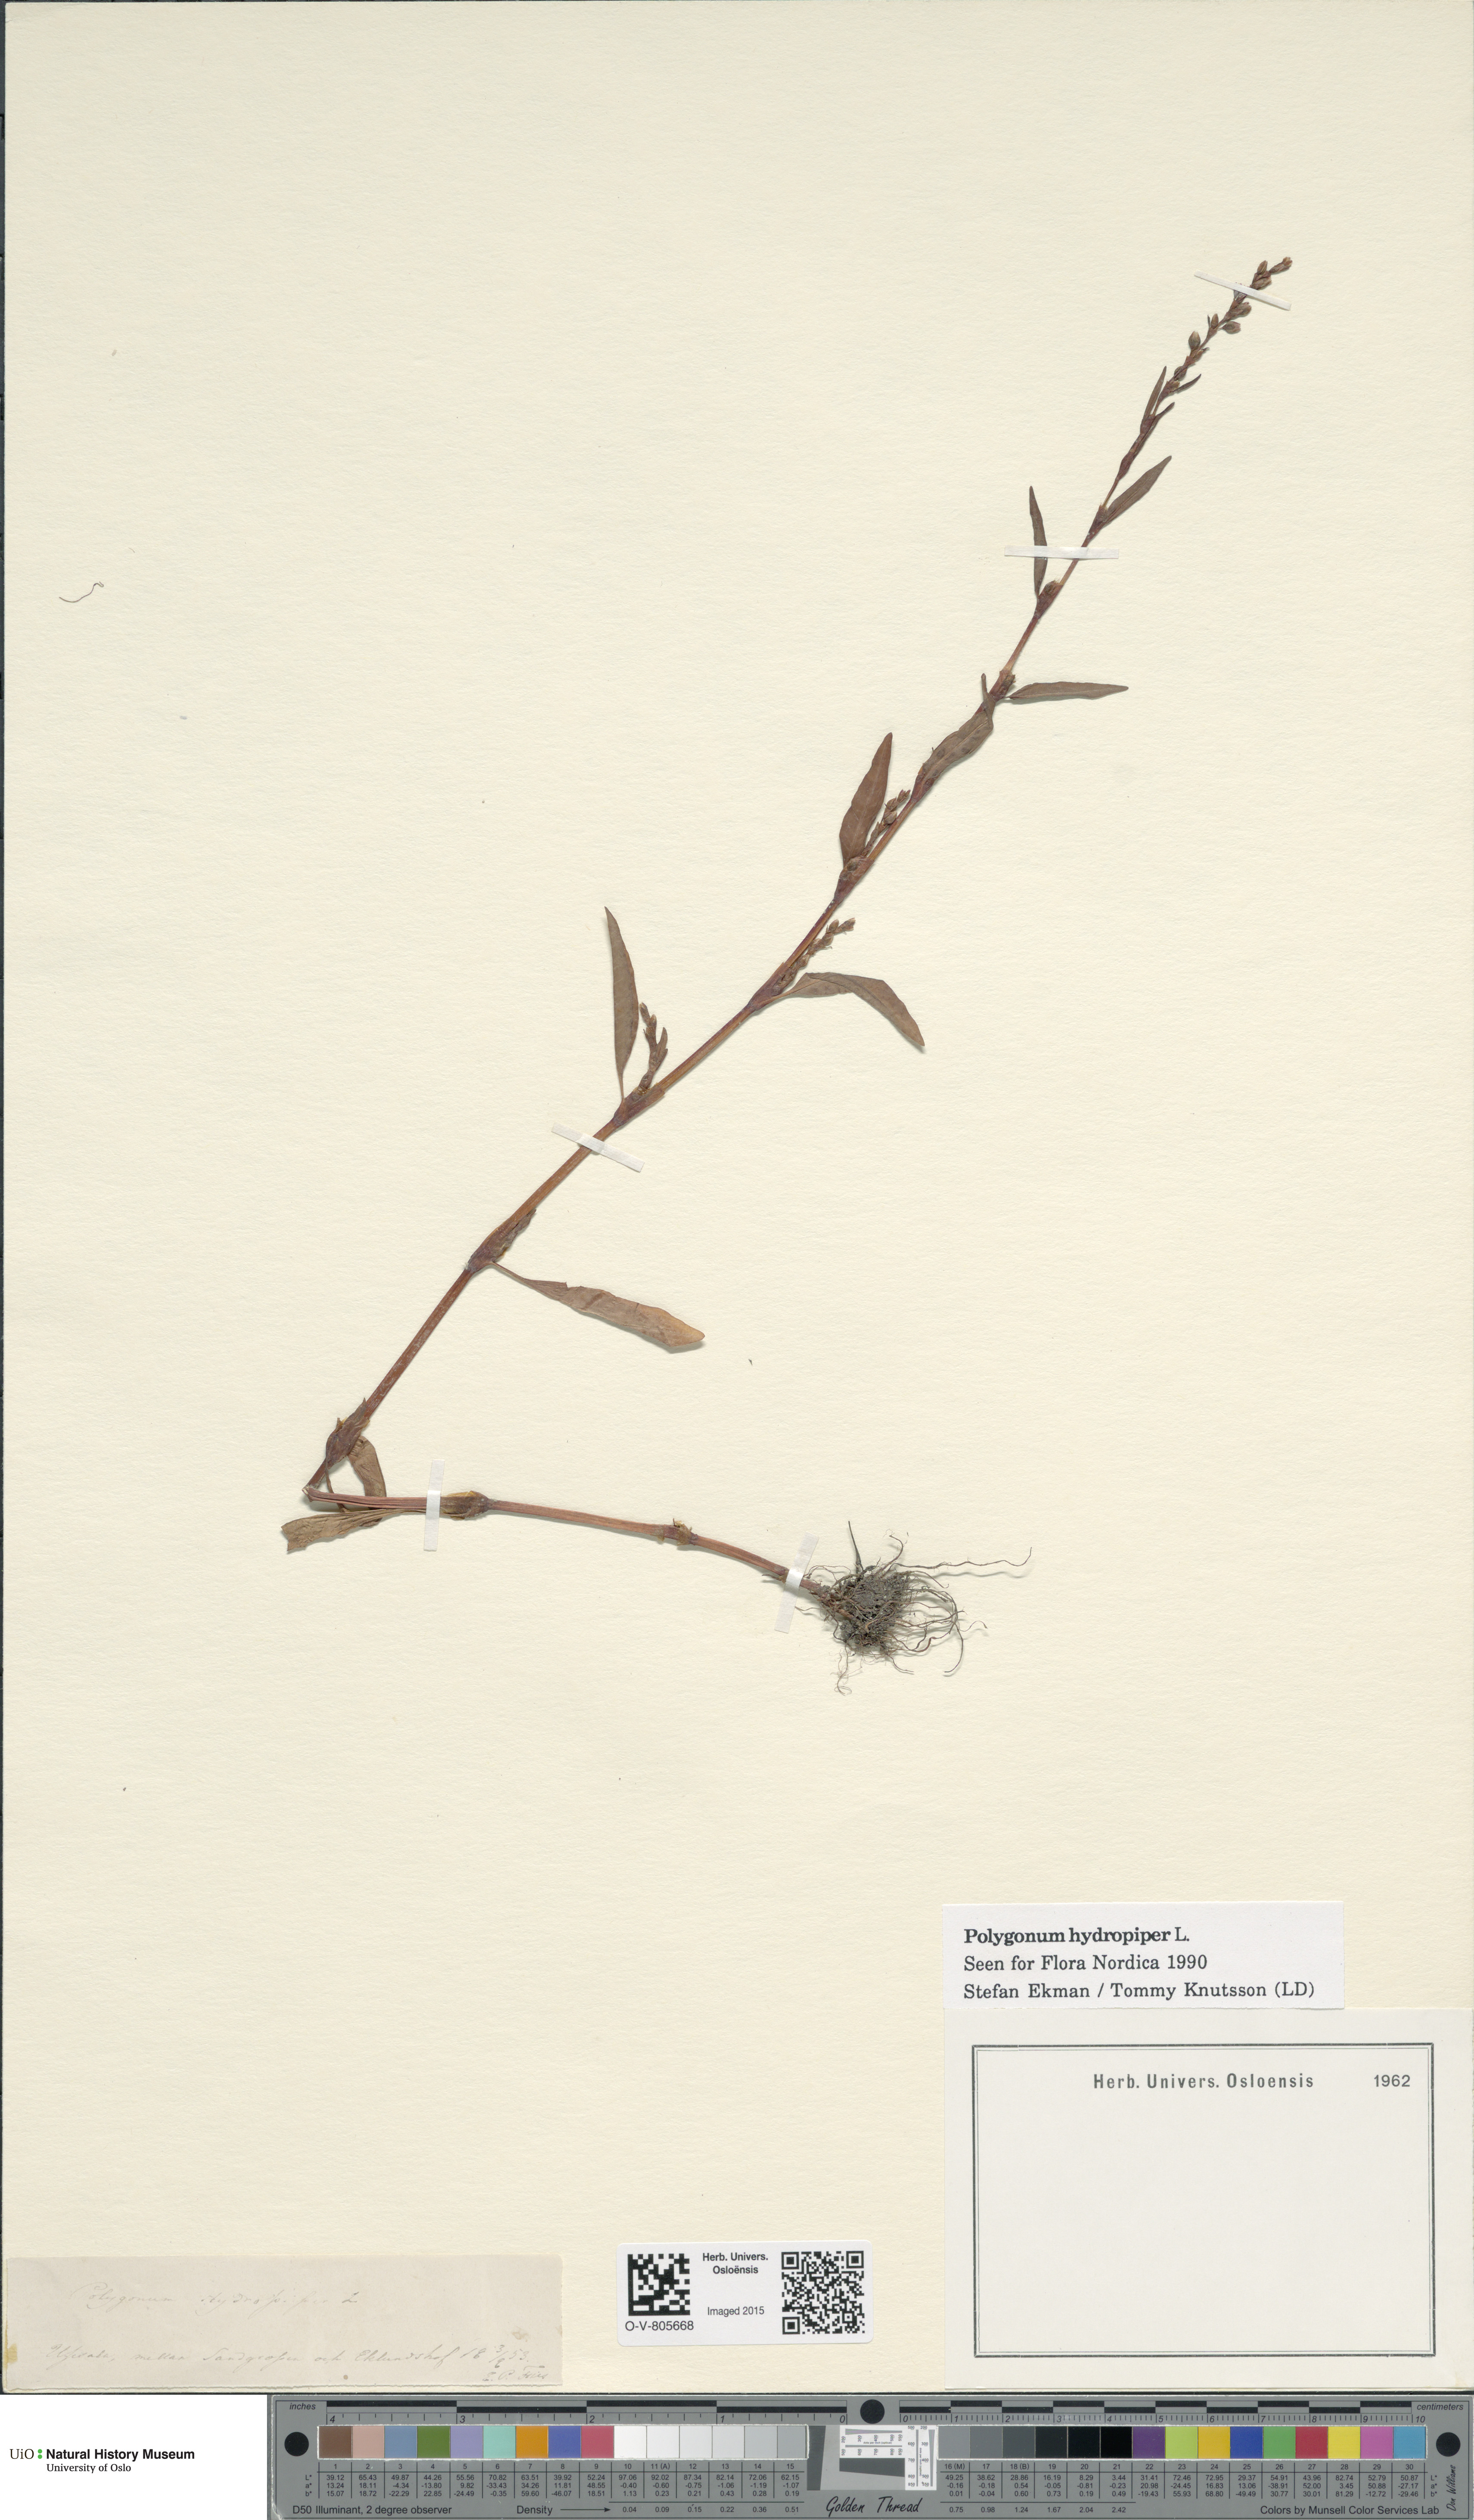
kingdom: Plantae
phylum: Tracheophyta
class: Magnoliopsida
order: Caryophyllales
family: Polygonaceae
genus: Persicaria
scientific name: Persicaria hydropiper
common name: Water-pepper
